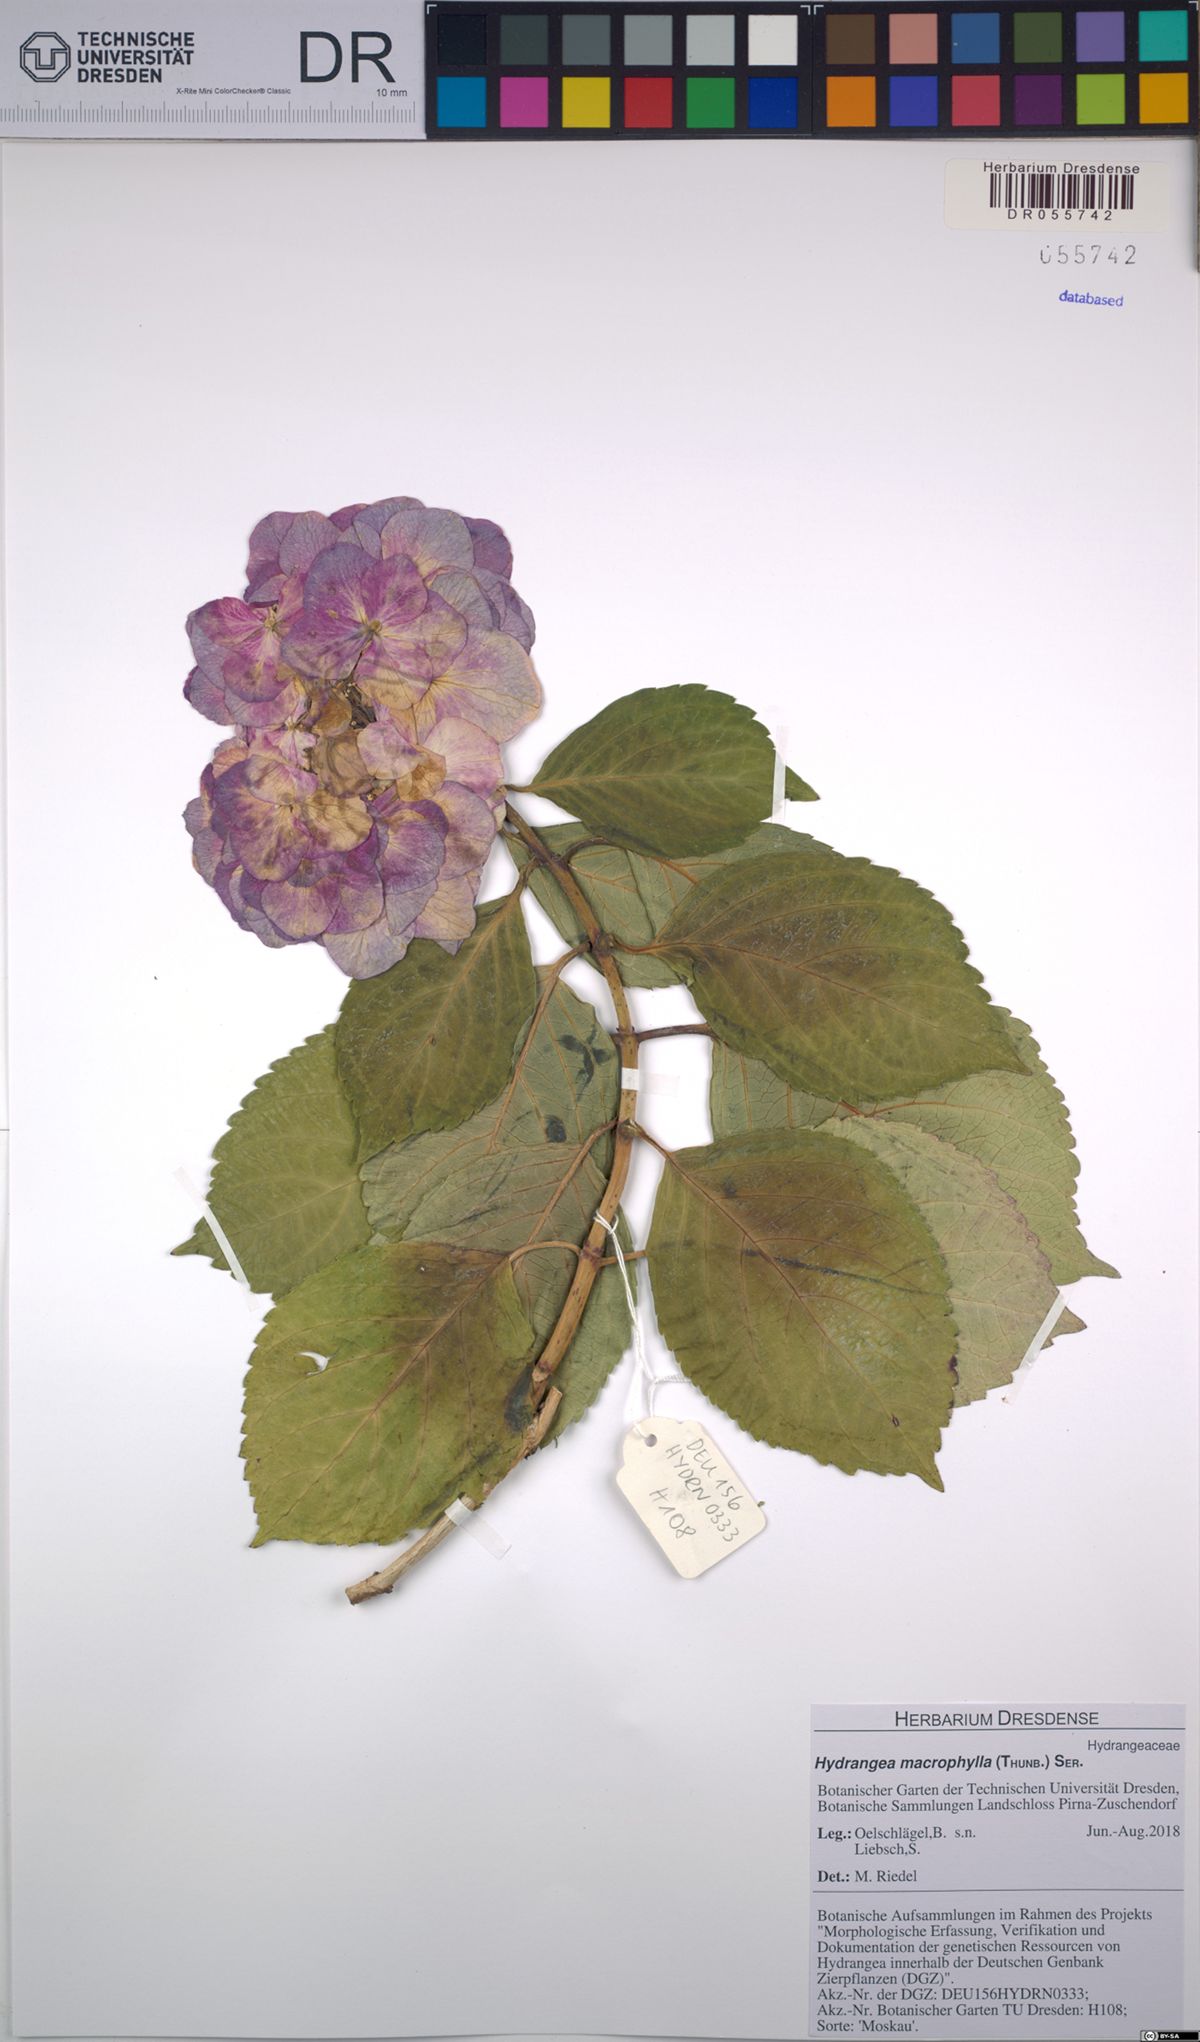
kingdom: Plantae
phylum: Tracheophyta
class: Magnoliopsida
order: Cornales
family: Hydrangeaceae
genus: Hydrangea
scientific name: Hydrangea macrophylla
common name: Hydrangea
